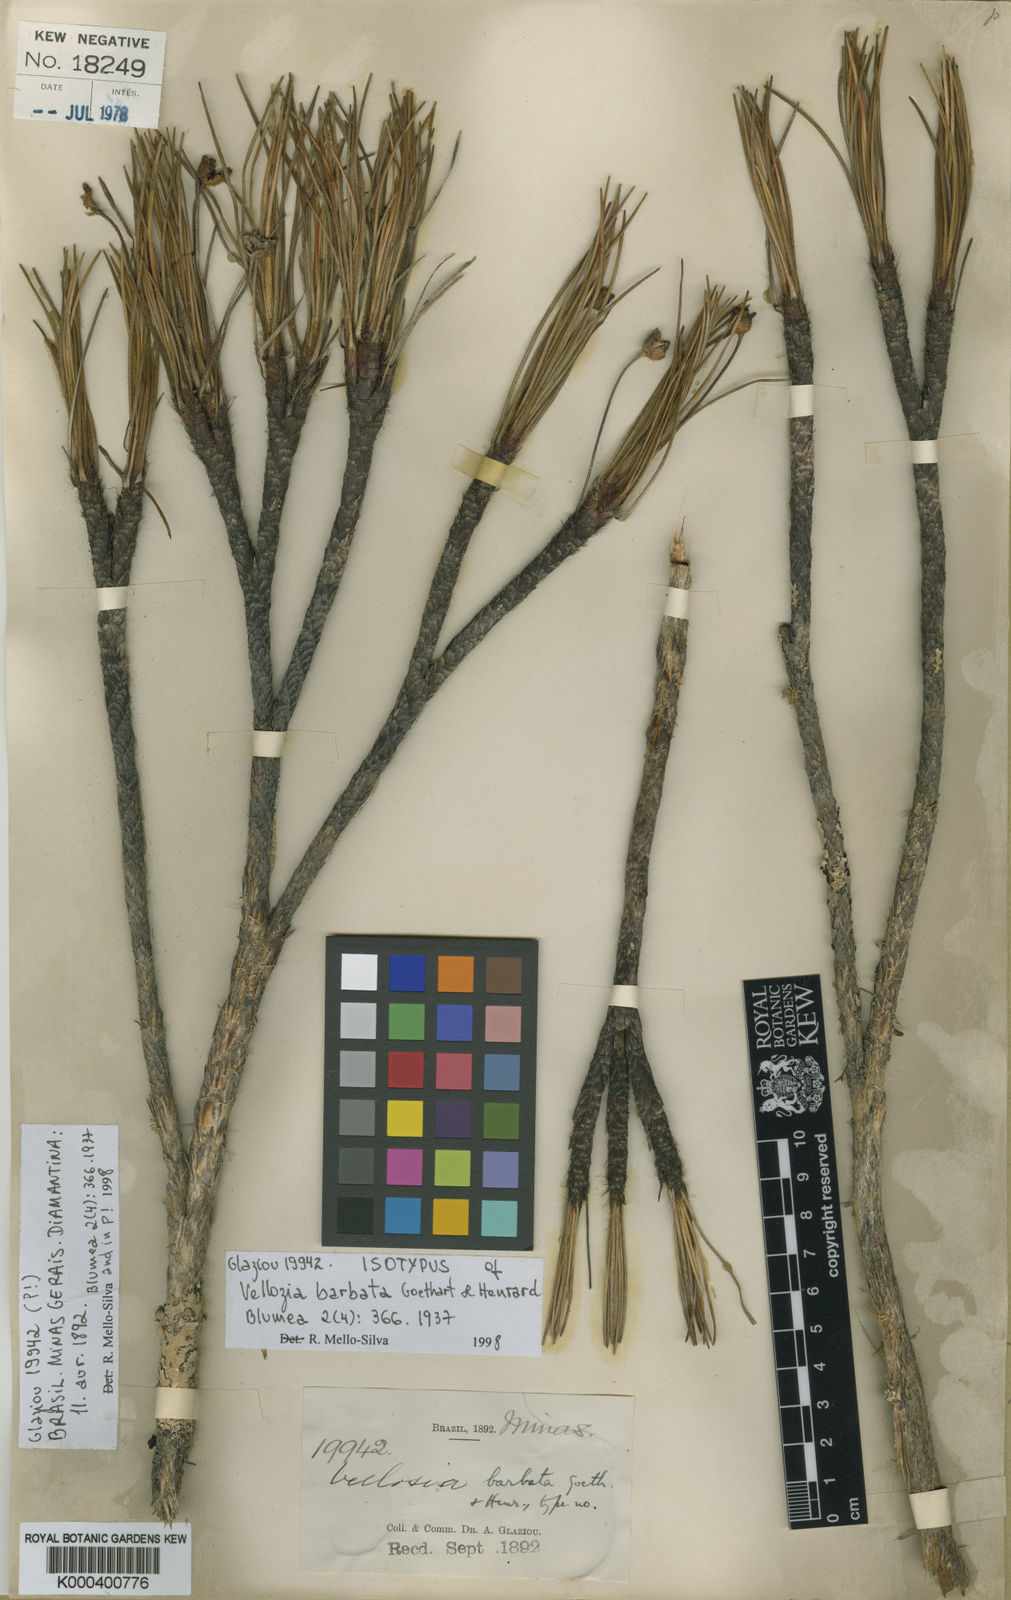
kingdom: Plantae
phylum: Tracheophyta
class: Liliopsida
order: Pandanales
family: Velloziaceae
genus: Vellozia
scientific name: Vellozia barbata
